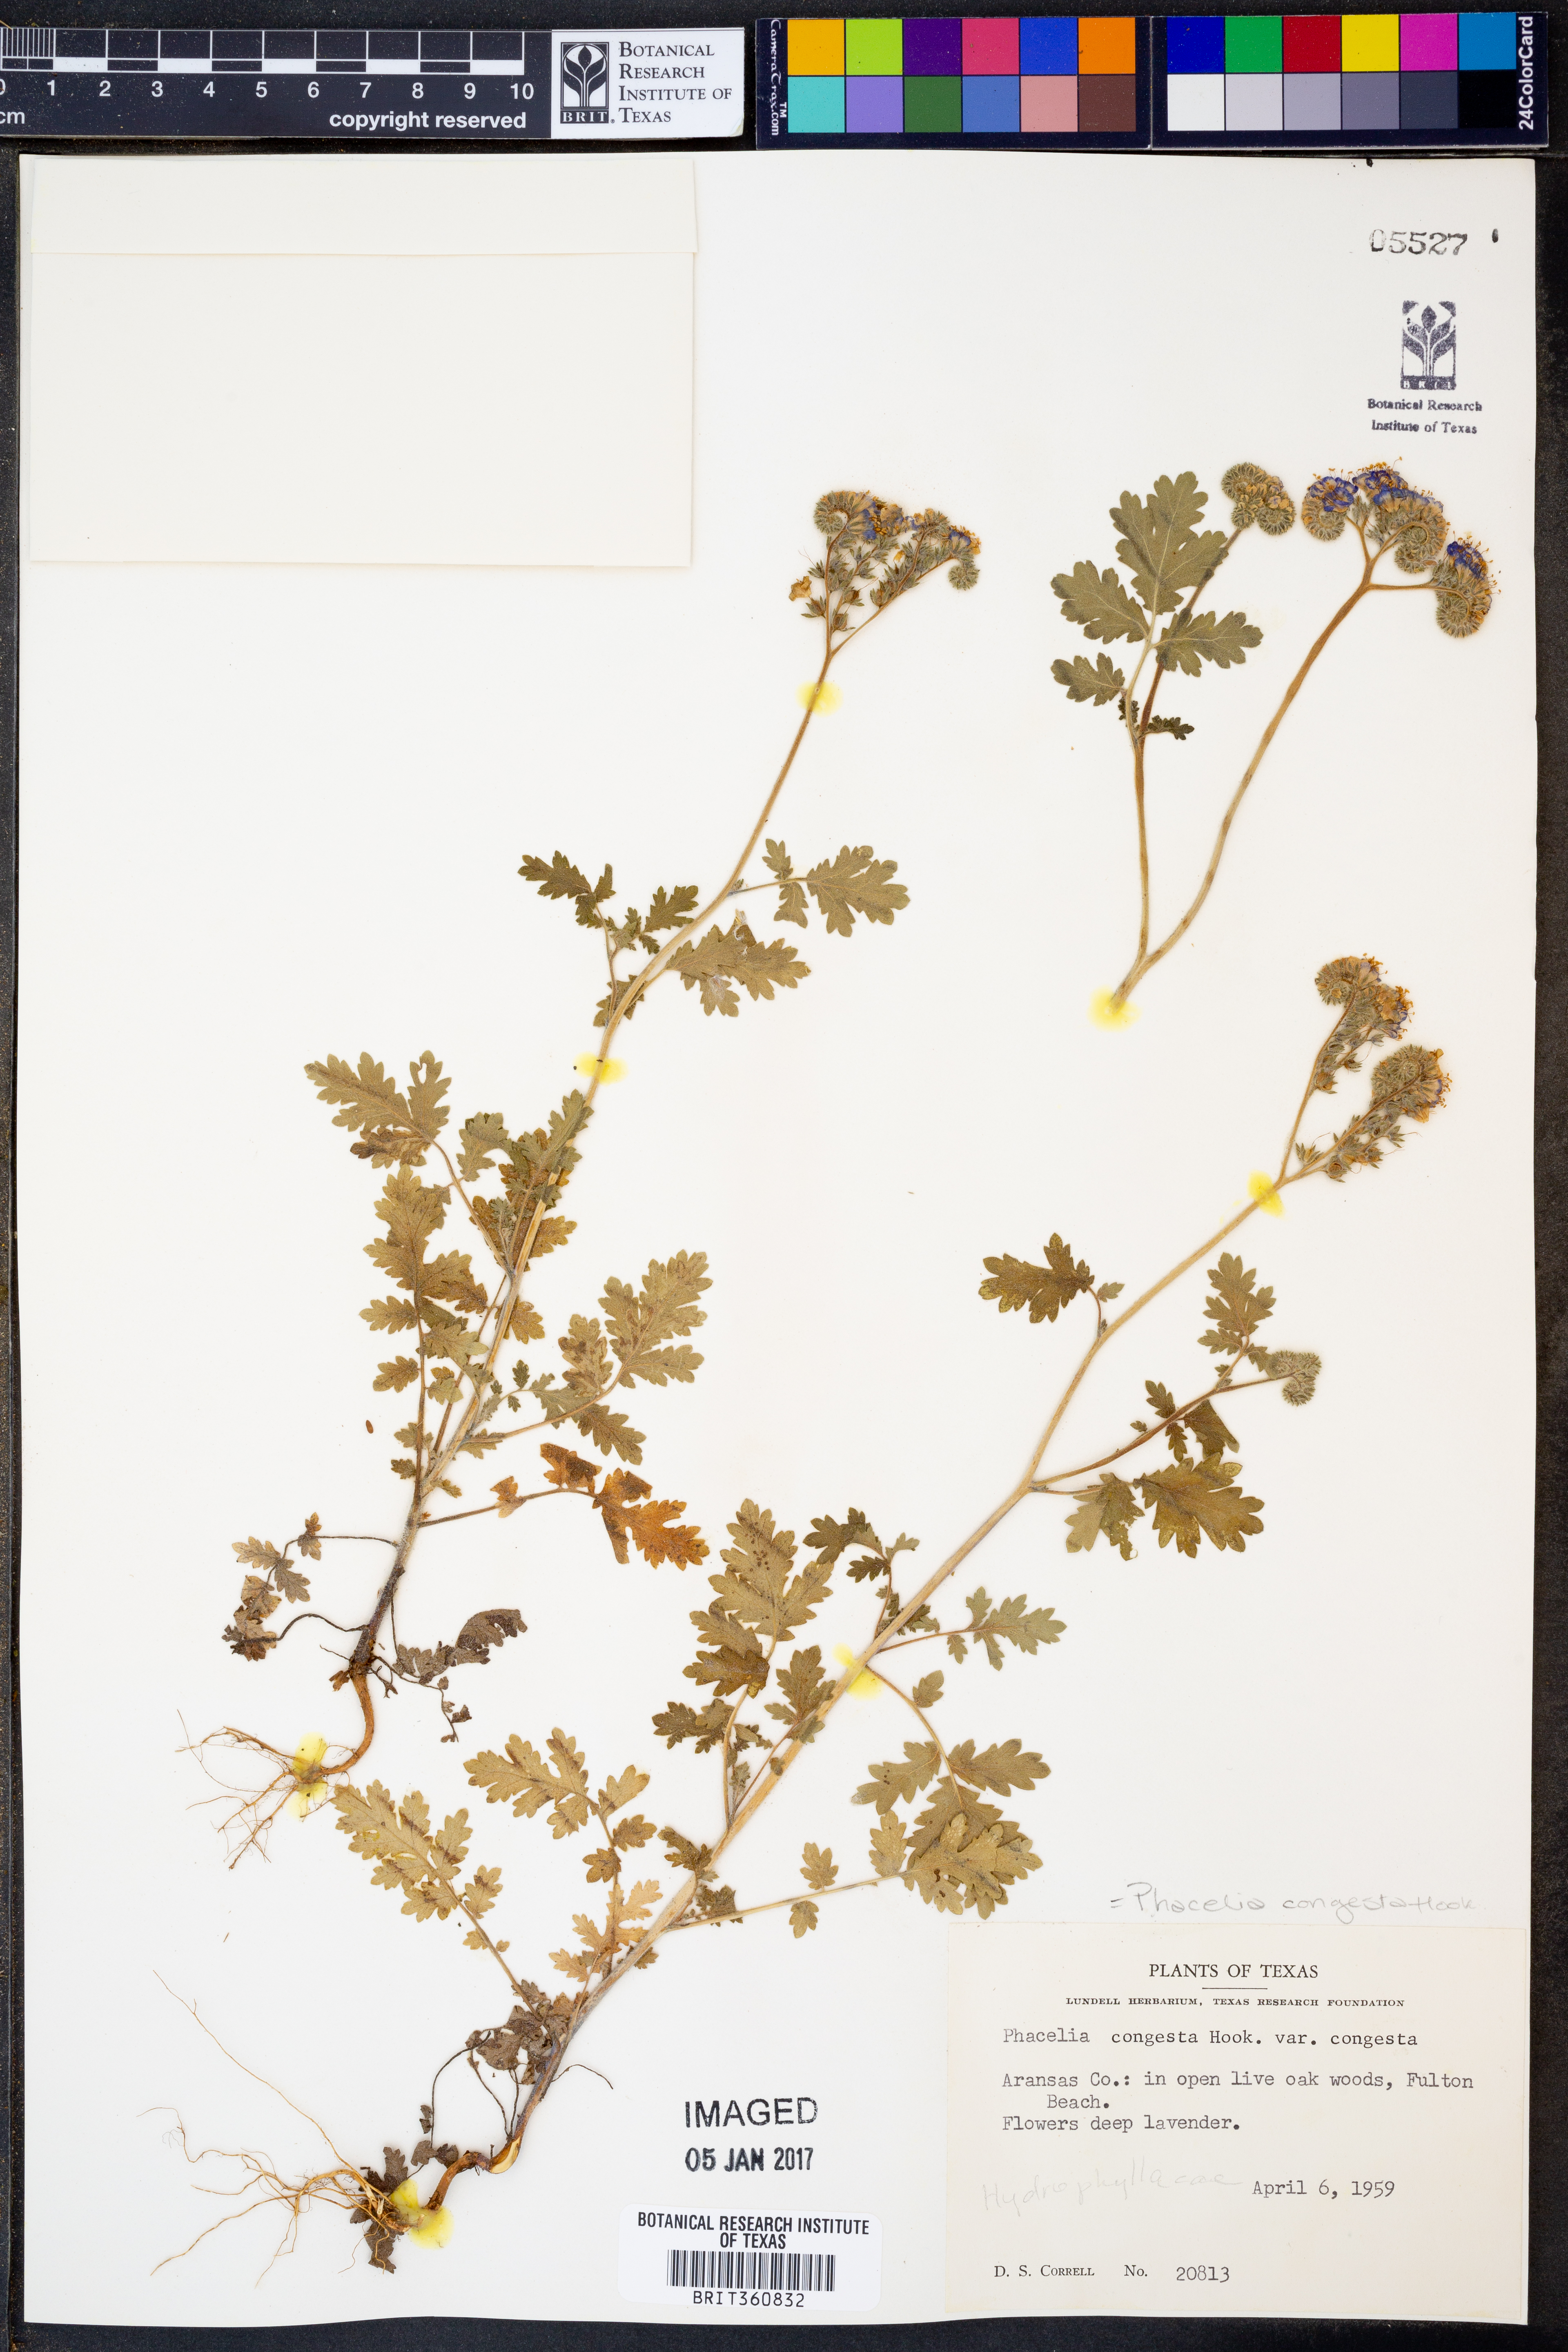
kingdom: Plantae
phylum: Tracheophyta
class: Magnoliopsida
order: Boraginales
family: Hydrophyllaceae
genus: Phacelia
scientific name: Phacelia congesta
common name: Blue curls
